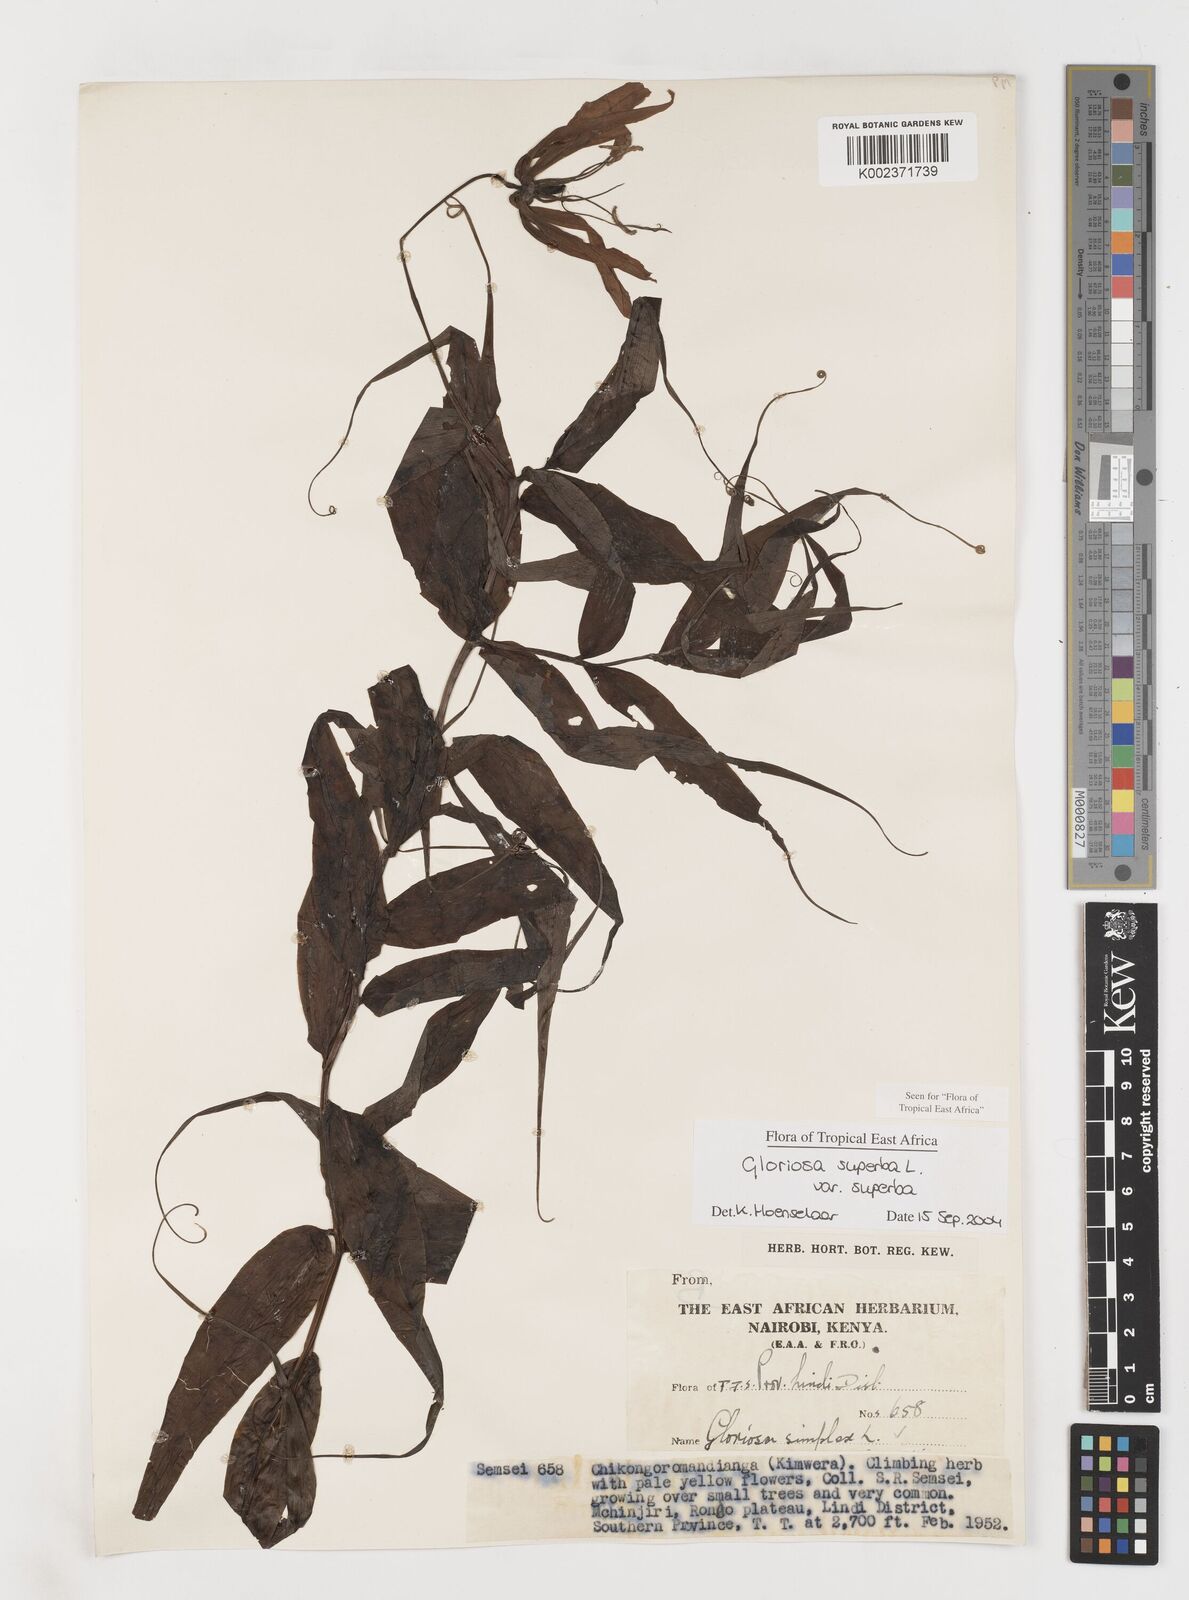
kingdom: Plantae
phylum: Tracheophyta
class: Liliopsida
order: Liliales
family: Colchicaceae
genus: Gloriosa
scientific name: Gloriosa simplex
